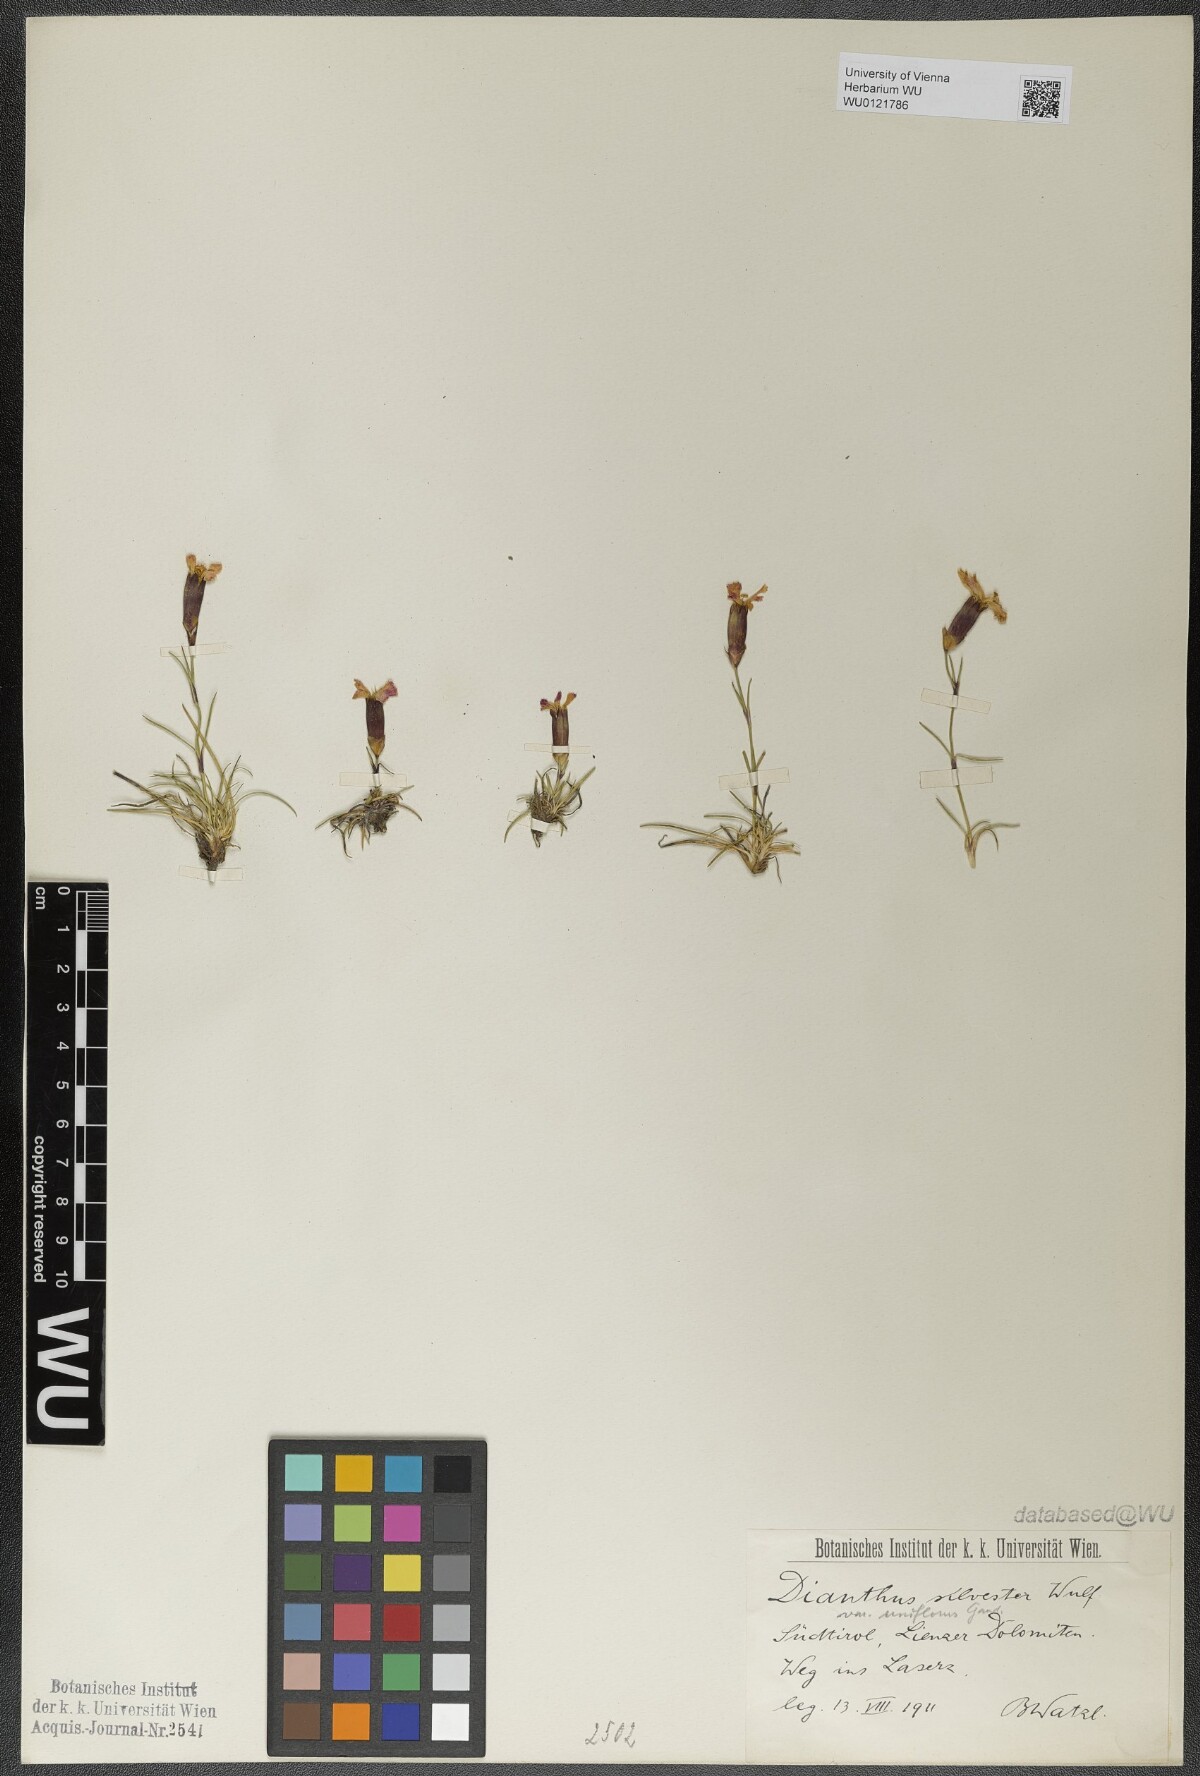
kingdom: Plantae
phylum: Tracheophyta
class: Magnoliopsida
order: Caryophyllales
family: Caryophyllaceae
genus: Dianthus
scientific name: Dianthus sylvestris
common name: Wood pink
